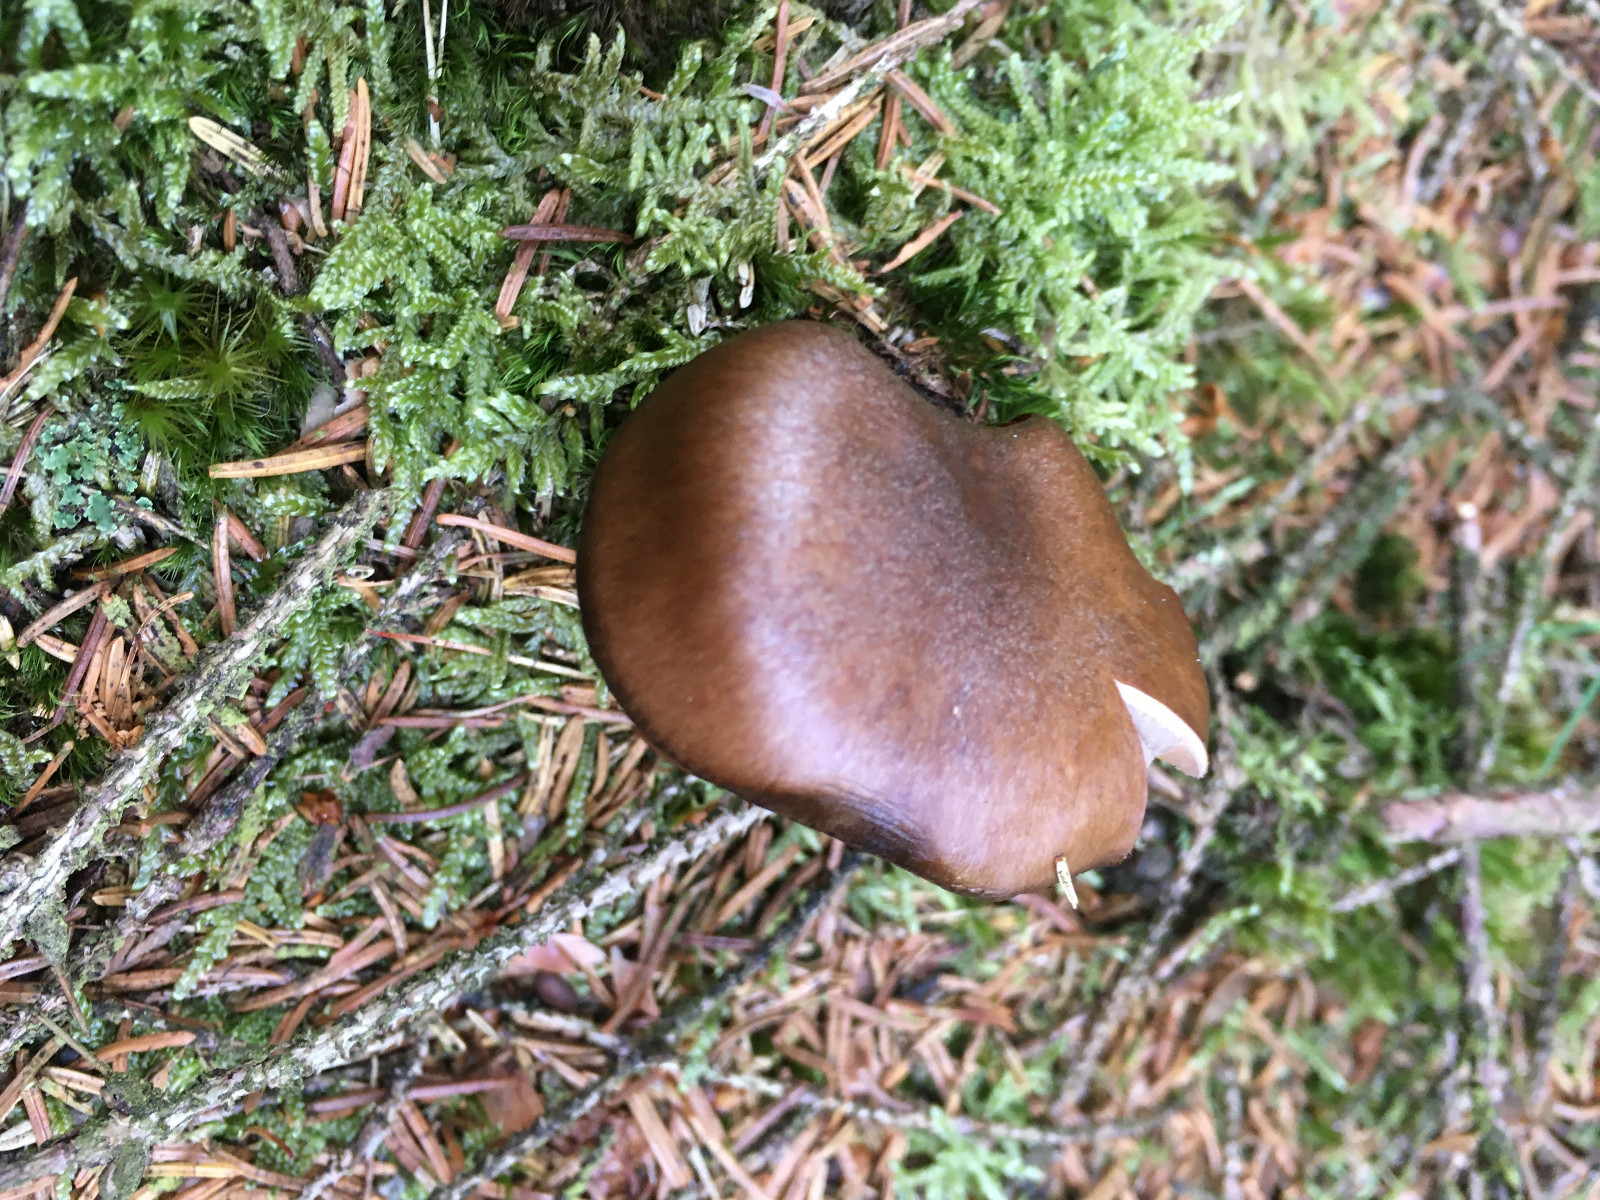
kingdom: Fungi
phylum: Basidiomycota
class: Agaricomycetes
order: Agaricales
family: Cortinariaceae
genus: Cortinarius
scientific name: Cortinarius
